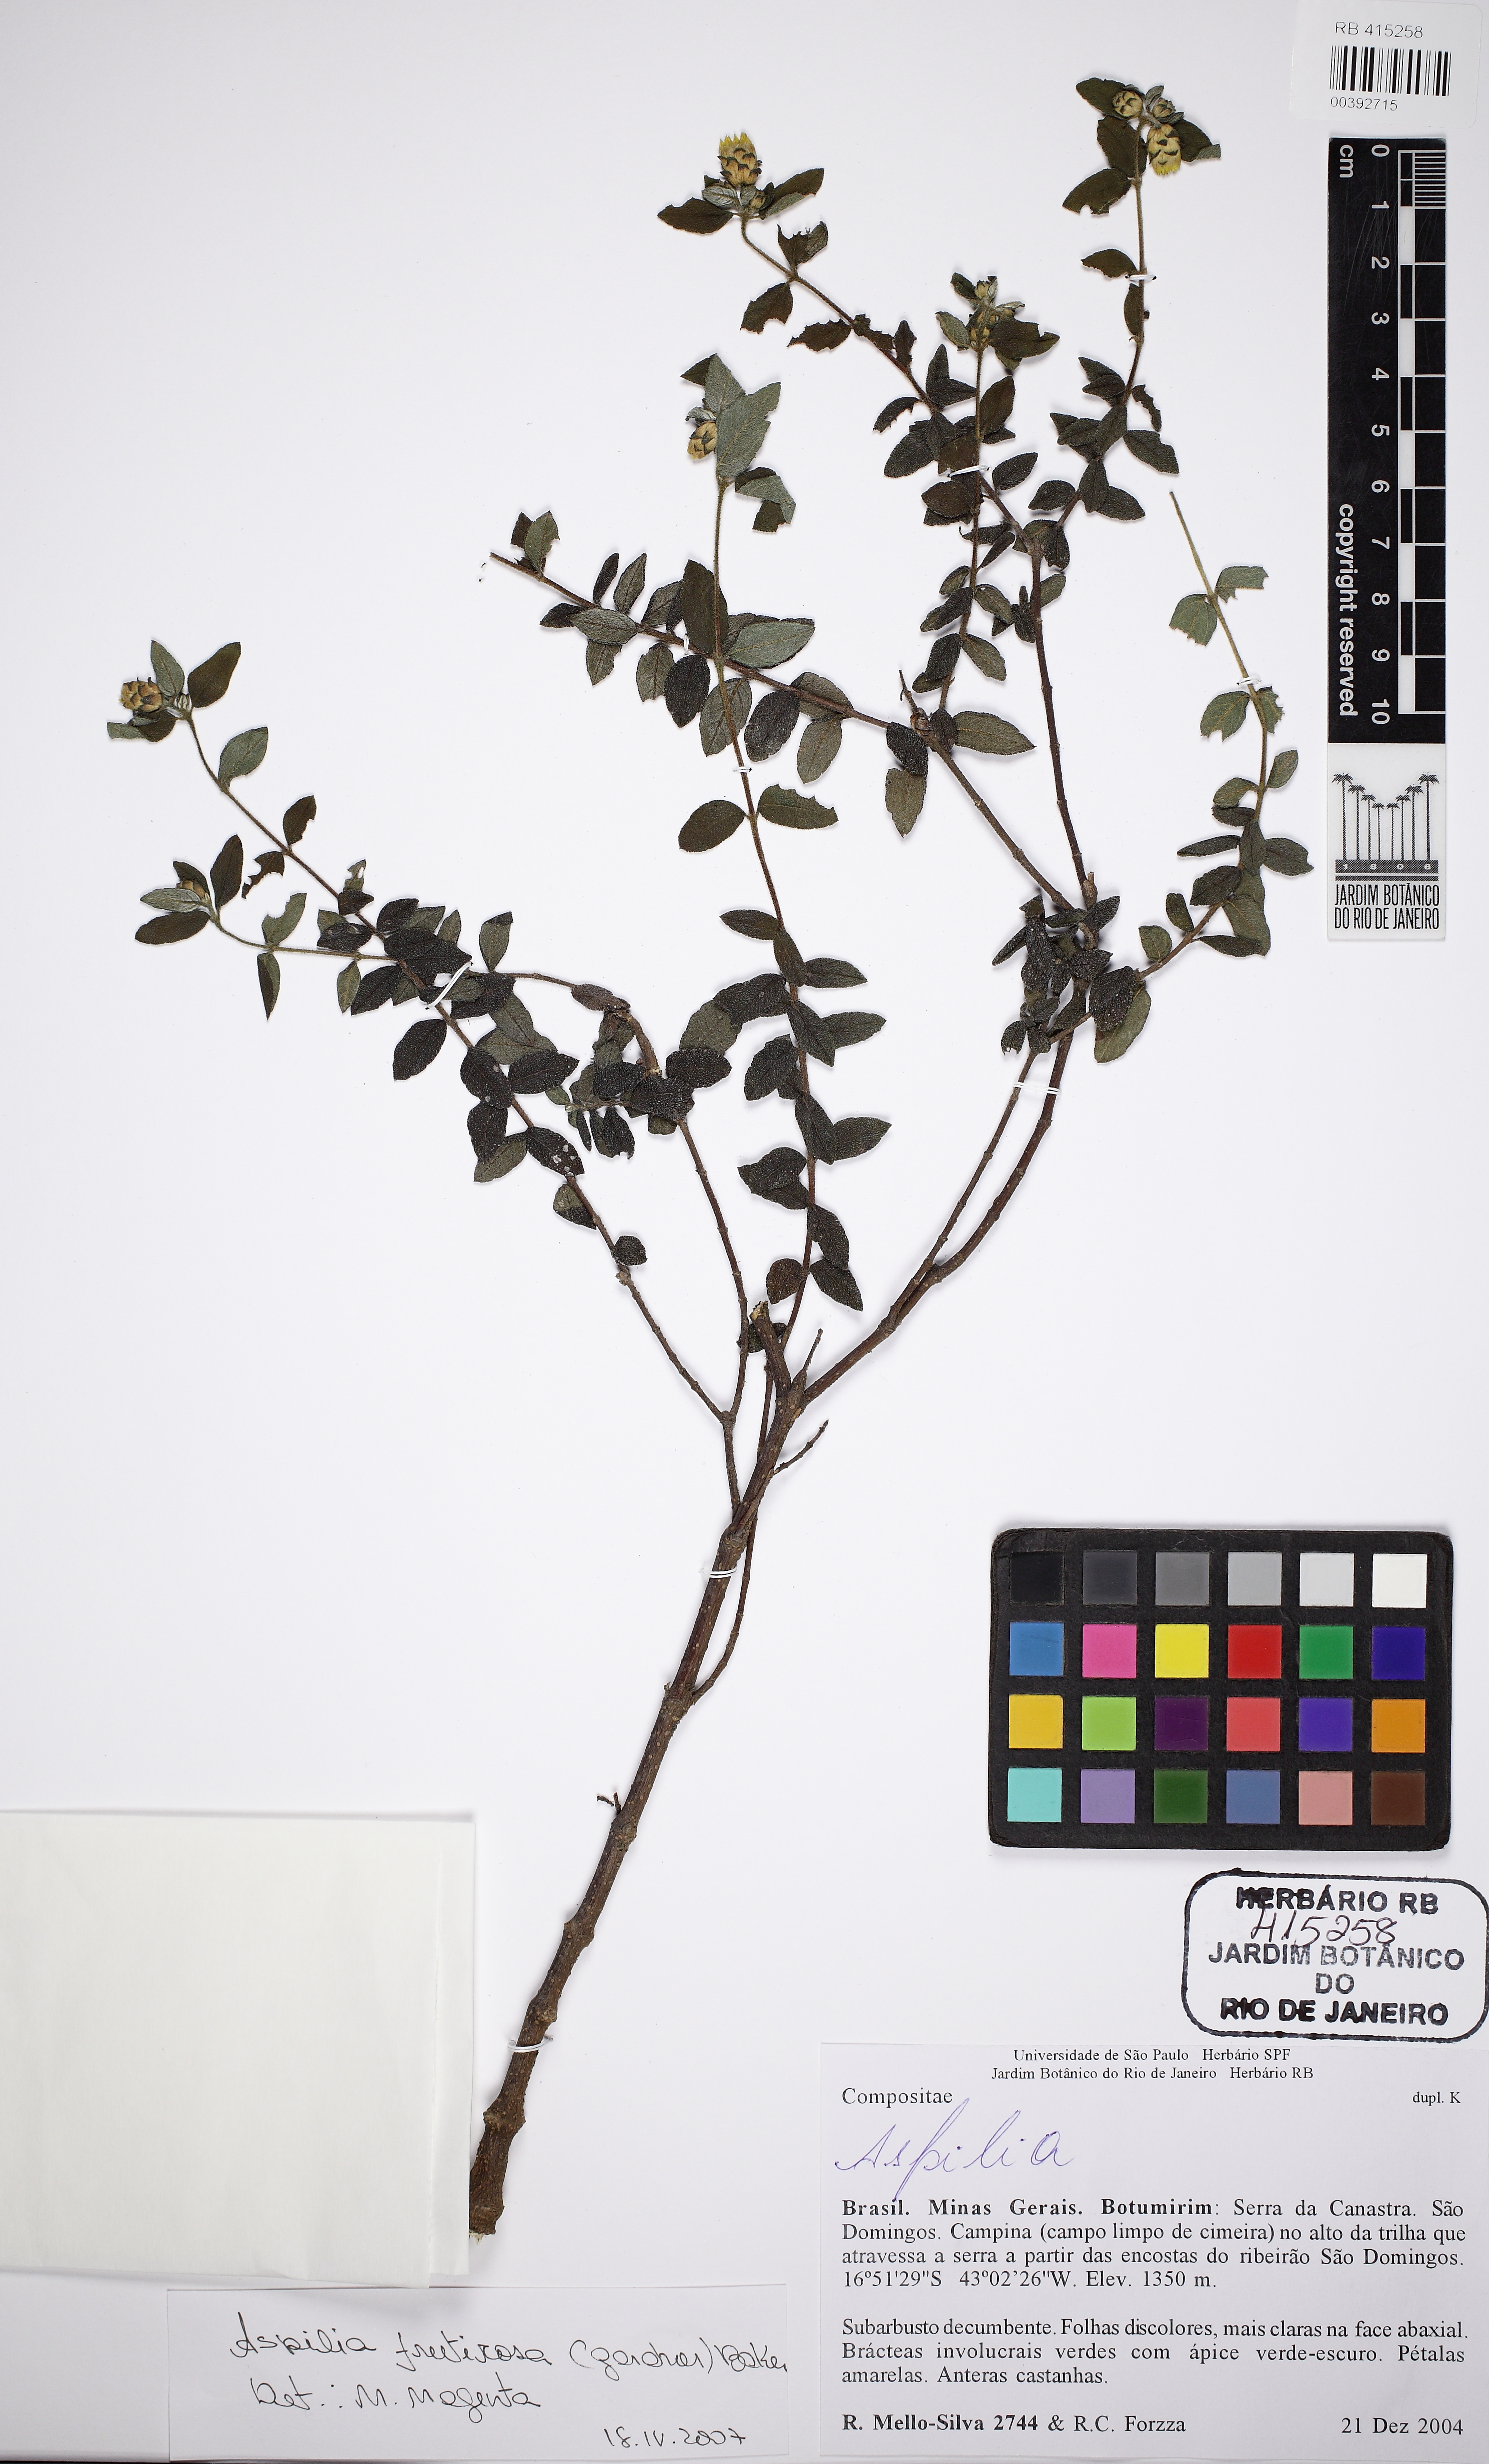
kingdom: Plantae
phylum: Tracheophyta
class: Magnoliopsida
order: Asterales
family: Asteraceae
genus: Wedelia
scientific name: Wedelia frustrata
